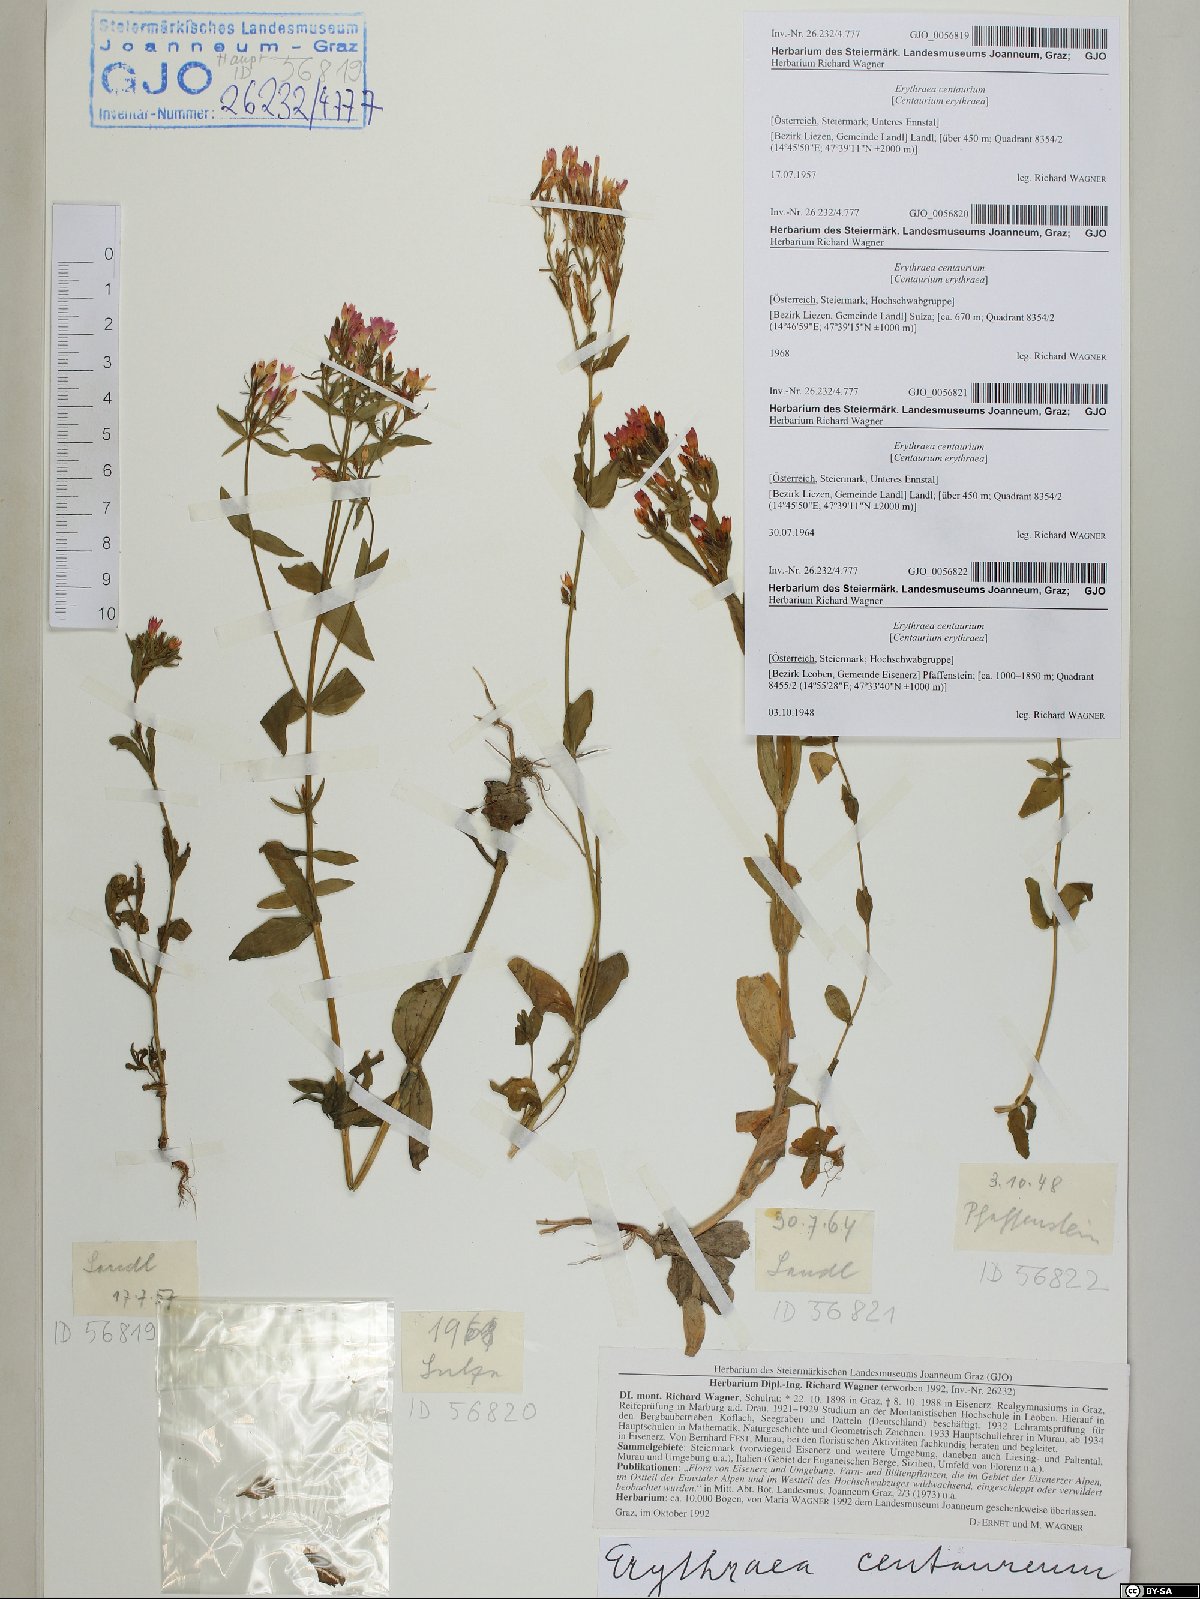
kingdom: Plantae
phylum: Tracheophyta
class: Magnoliopsida
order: Gentianales
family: Gentianaceae
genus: Centaurium
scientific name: Centaurium erythraea
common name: Common centaury
